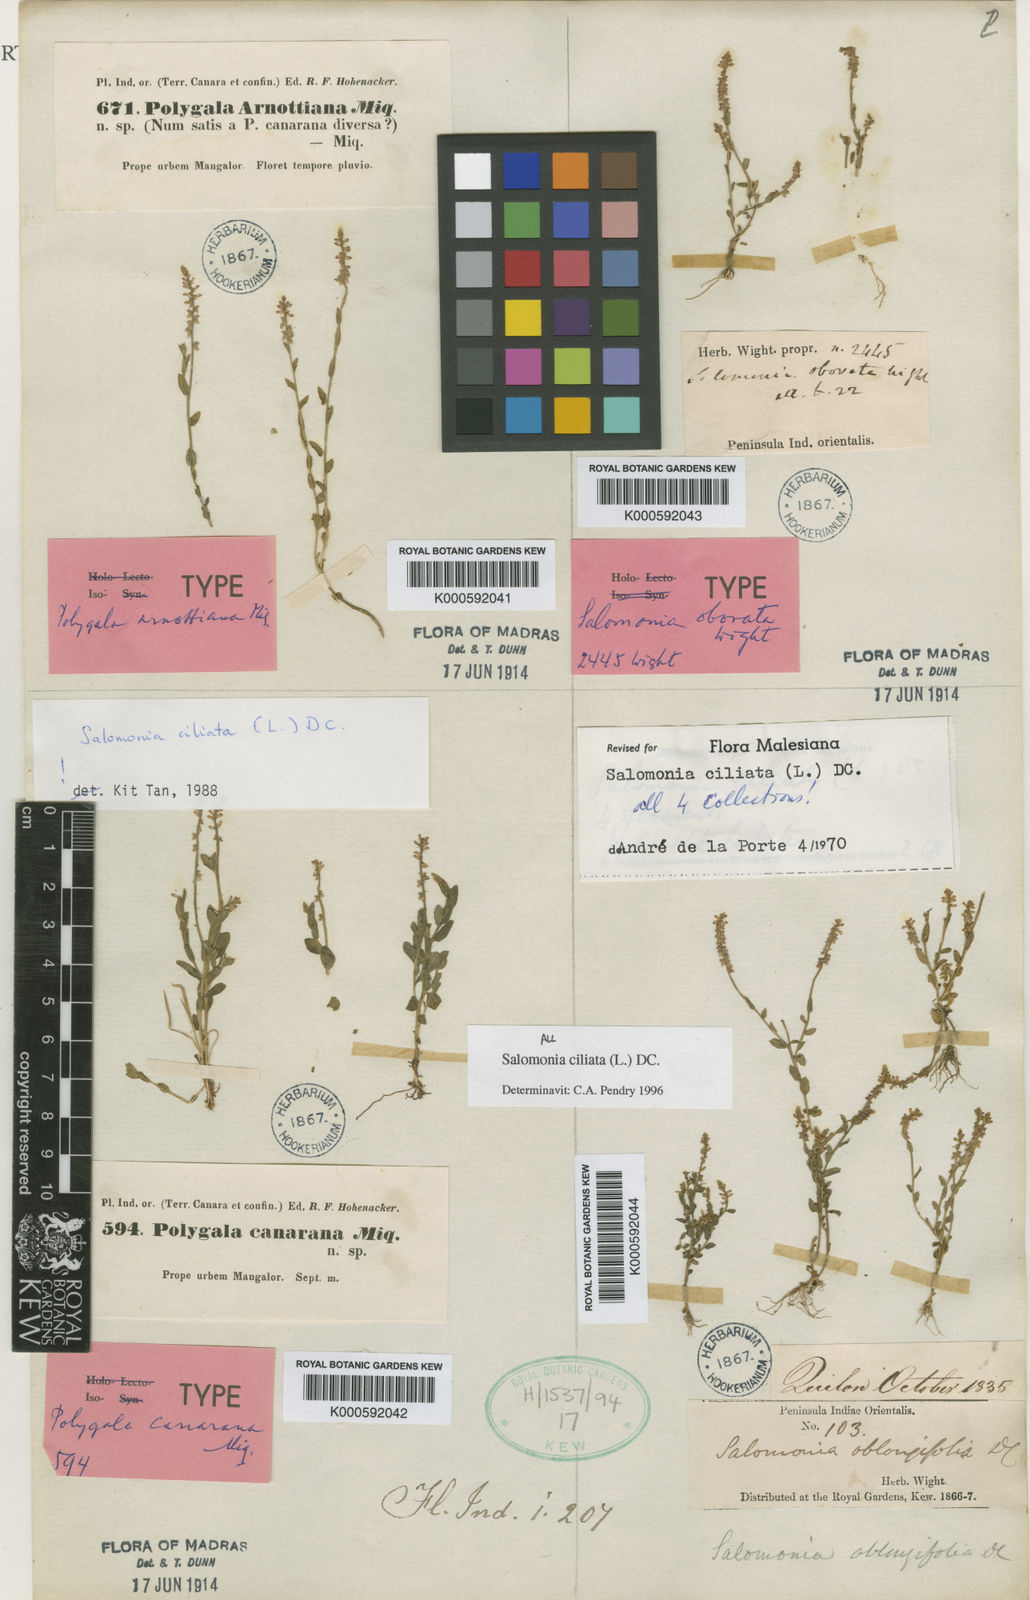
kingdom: Plantae
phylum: Tracheophyta
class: Magnoliopsida
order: Fabales
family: Polygalaceae
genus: Salomonia
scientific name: Salomonia ciliata
